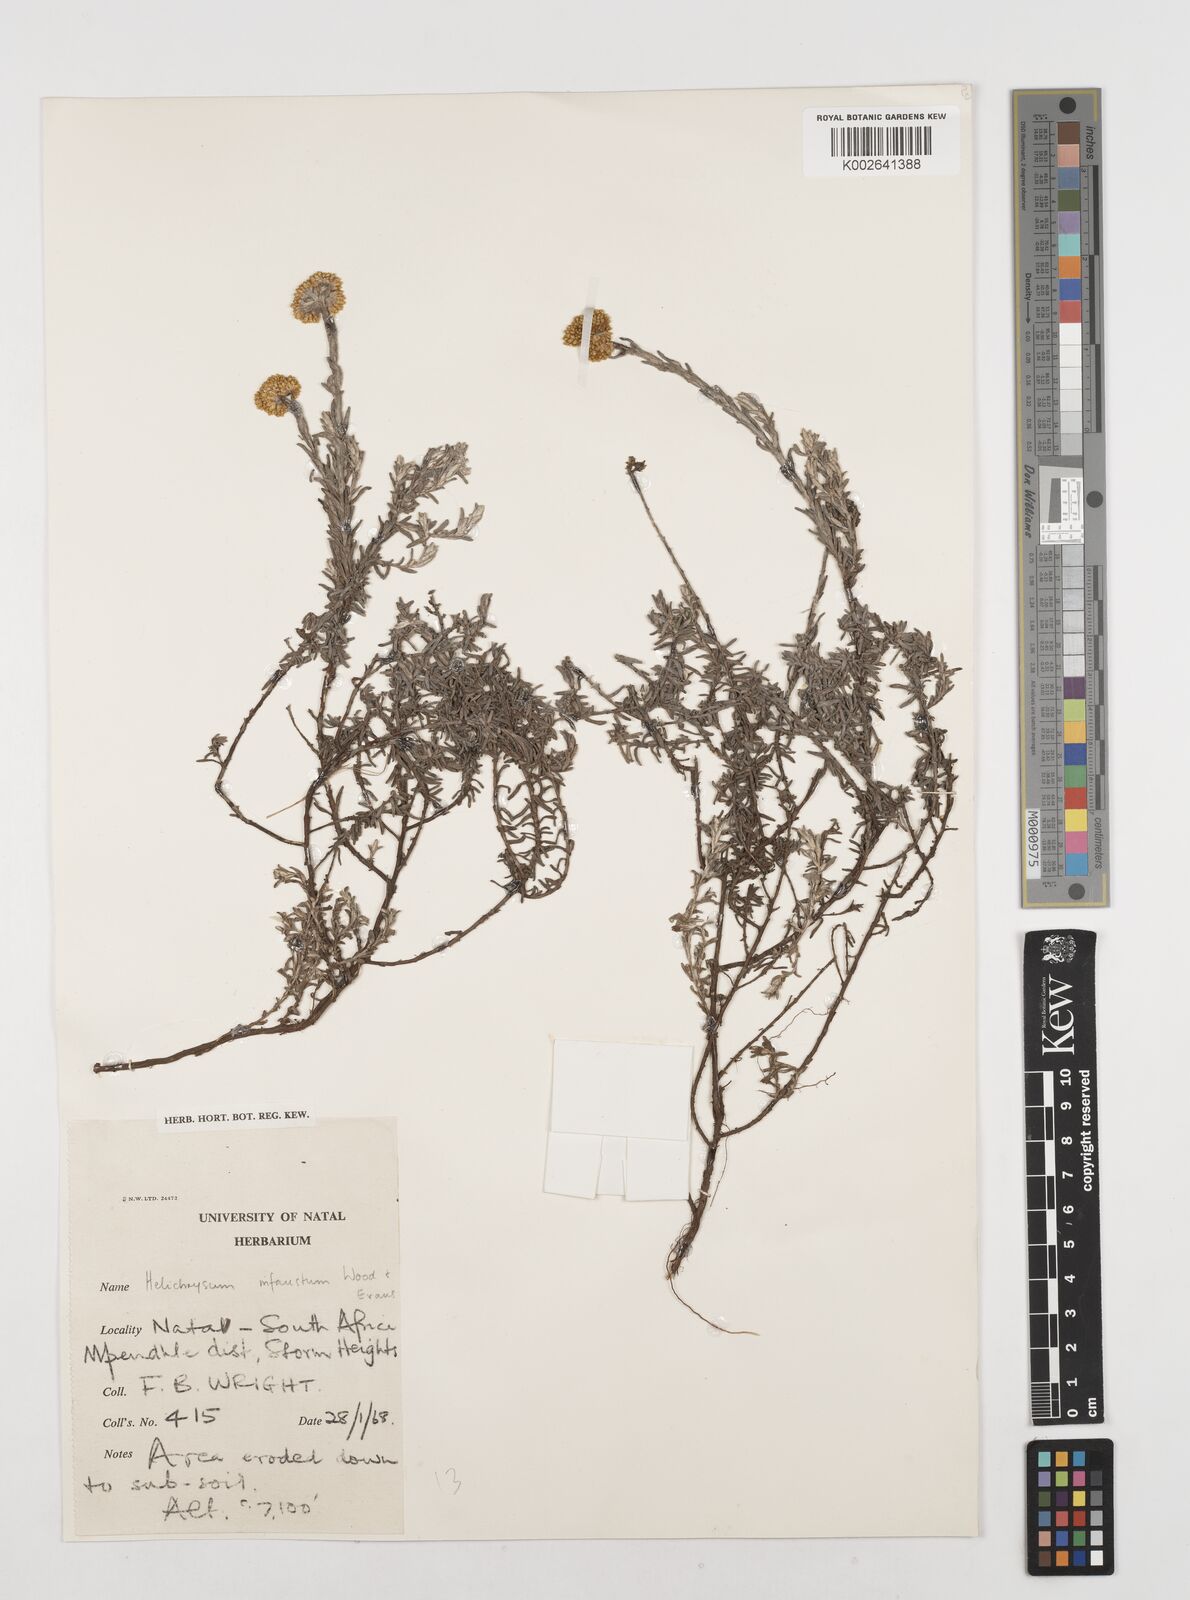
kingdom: Plantae
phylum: Tracheophyta
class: Magnoliopsida
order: Asterales
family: Asteraceae
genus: Calomeria
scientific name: Calomeria infausta
